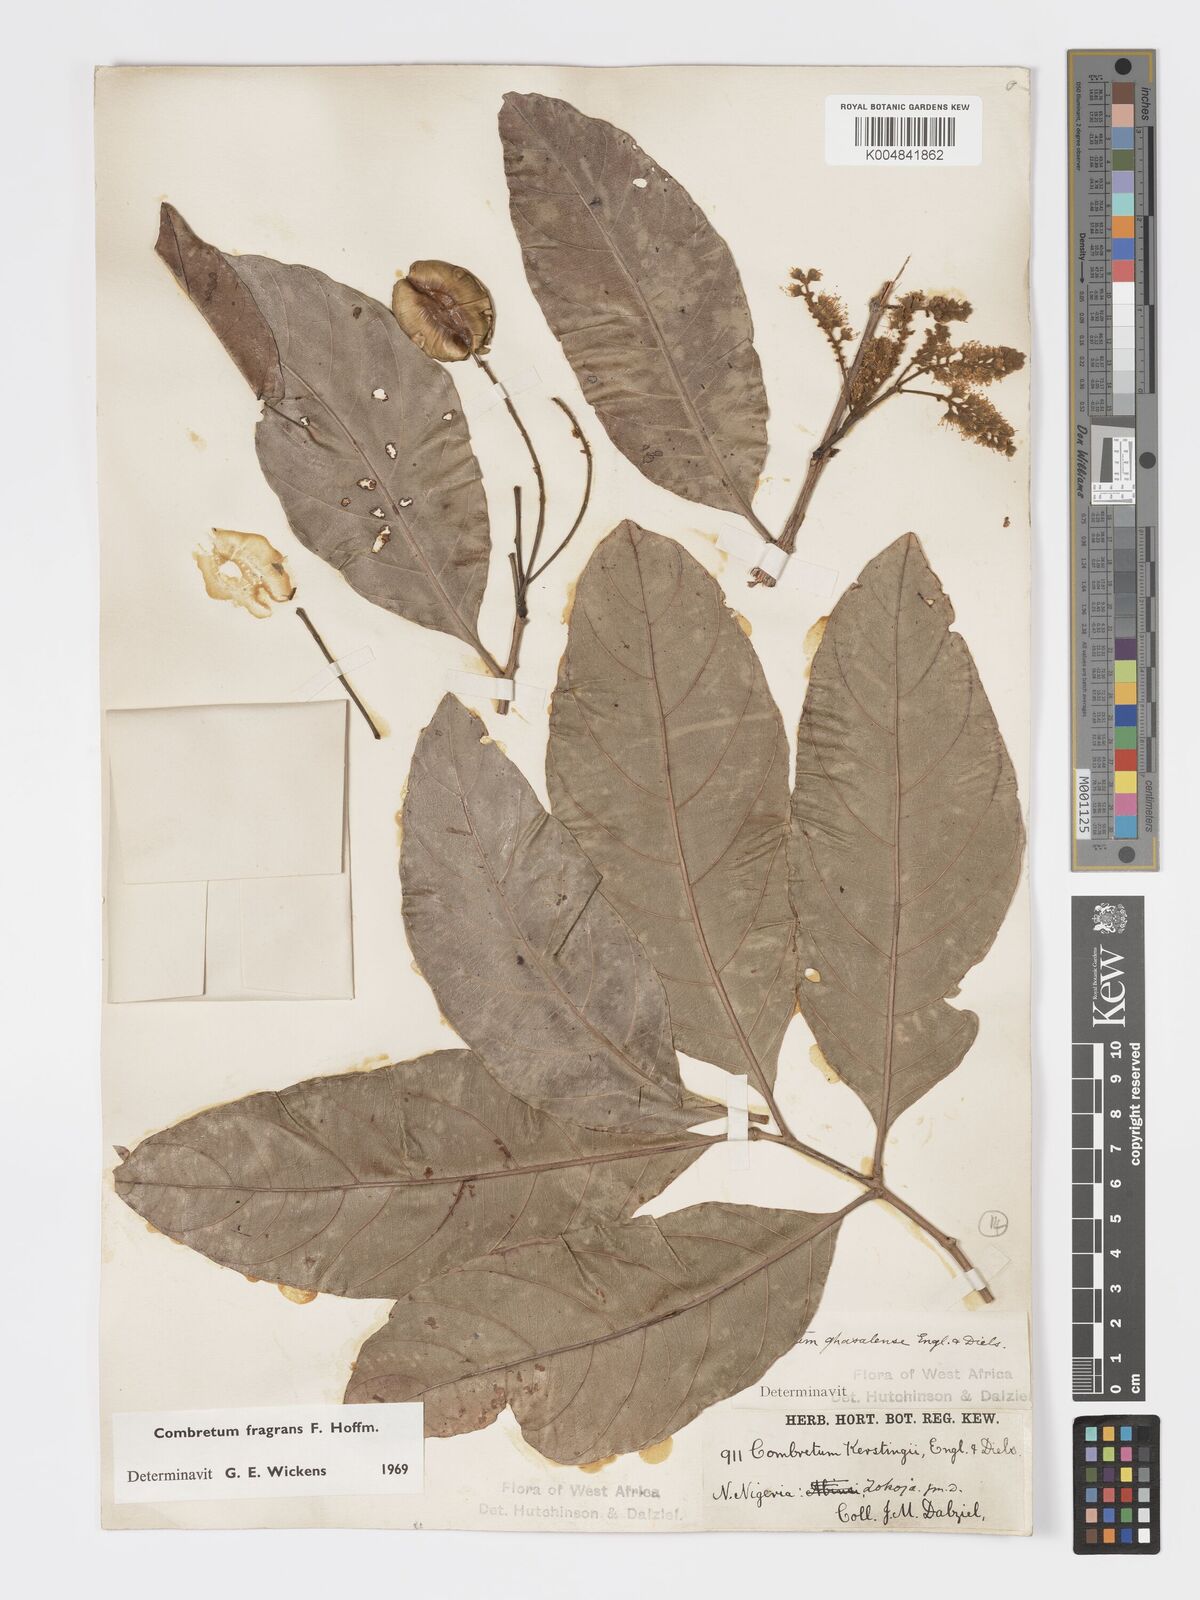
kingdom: Plantae
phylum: Tracheophyta
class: Magnoliopsida
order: Myrtales
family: Combretaceae
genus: Combretum
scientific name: Combretum adenogonium
